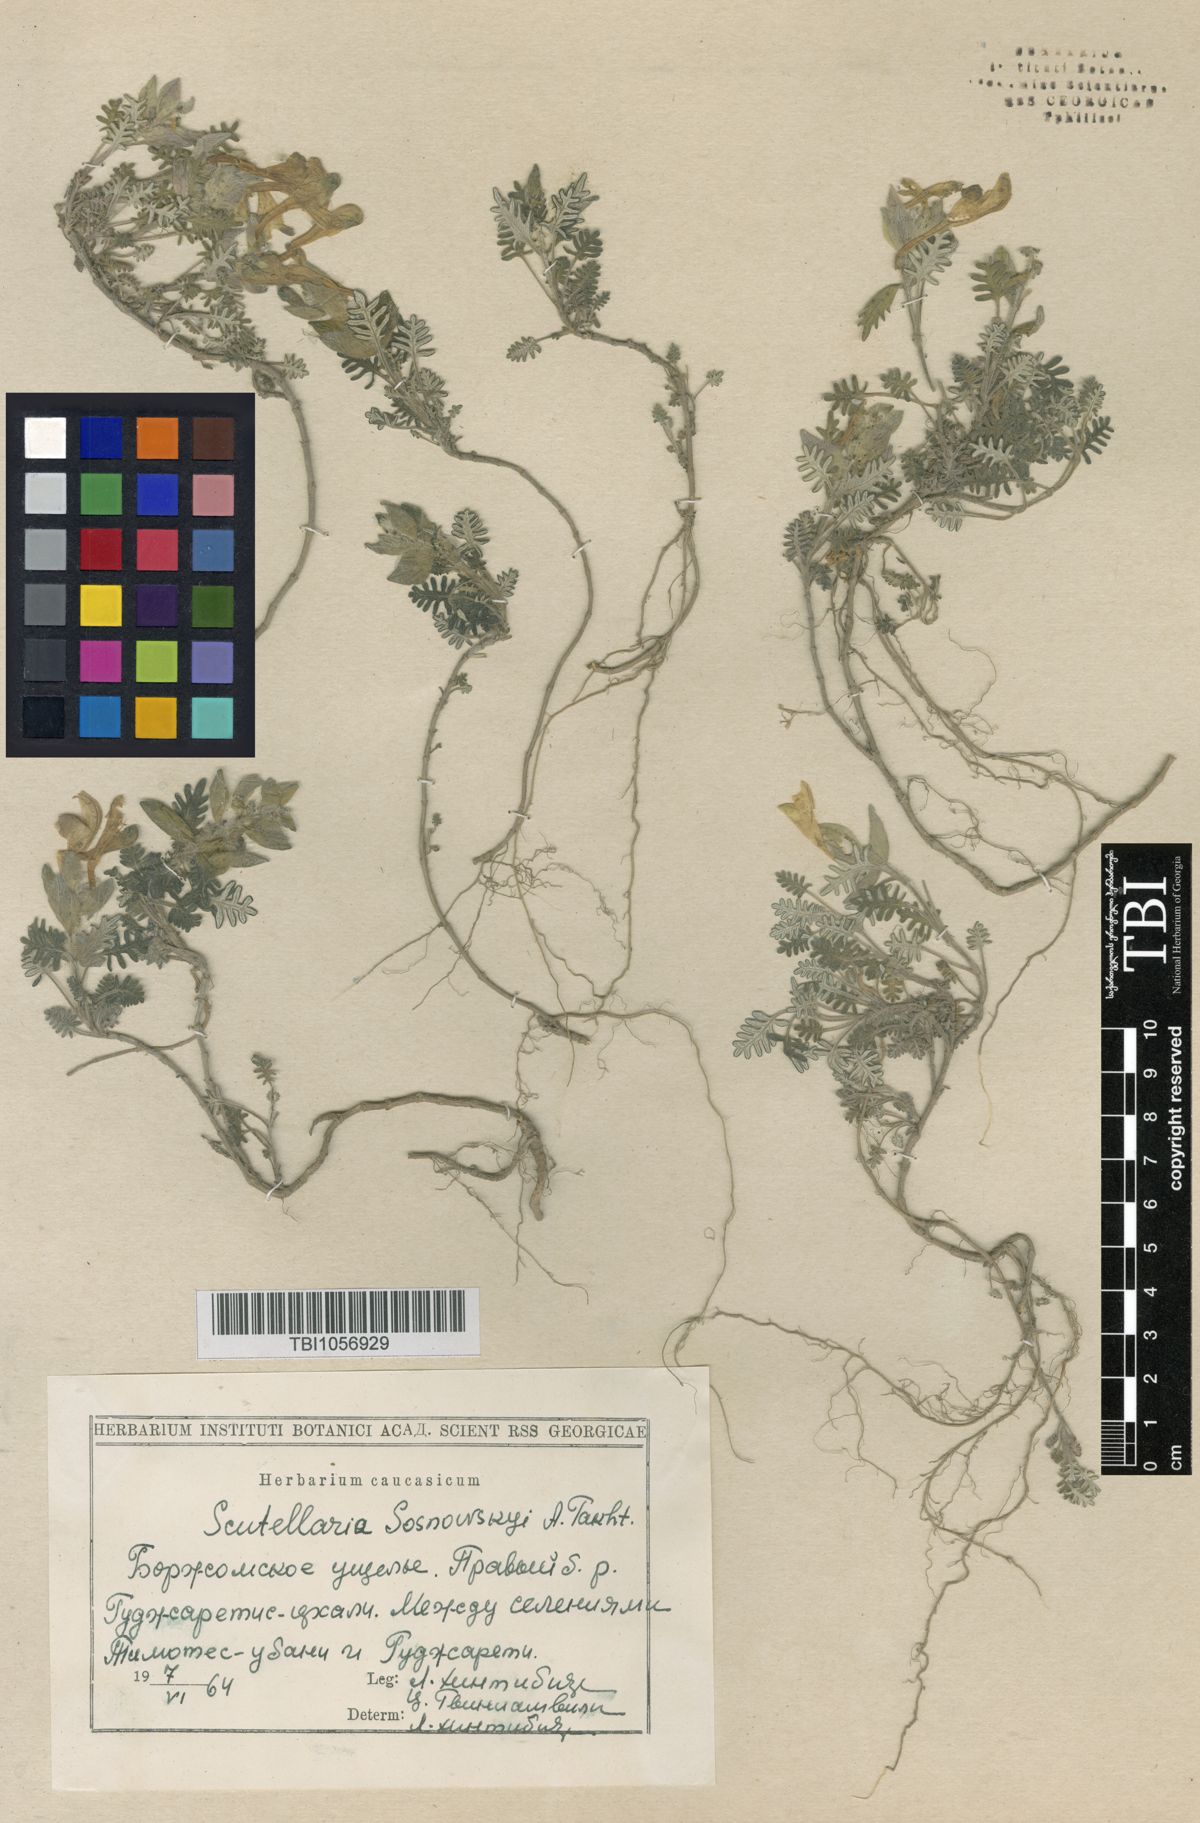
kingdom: Plantae
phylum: Tracheophyta
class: Magnoliopsida
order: Lamiales
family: Lamiaceae
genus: Scutellaria
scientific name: Scutellaria sosnowskyi
